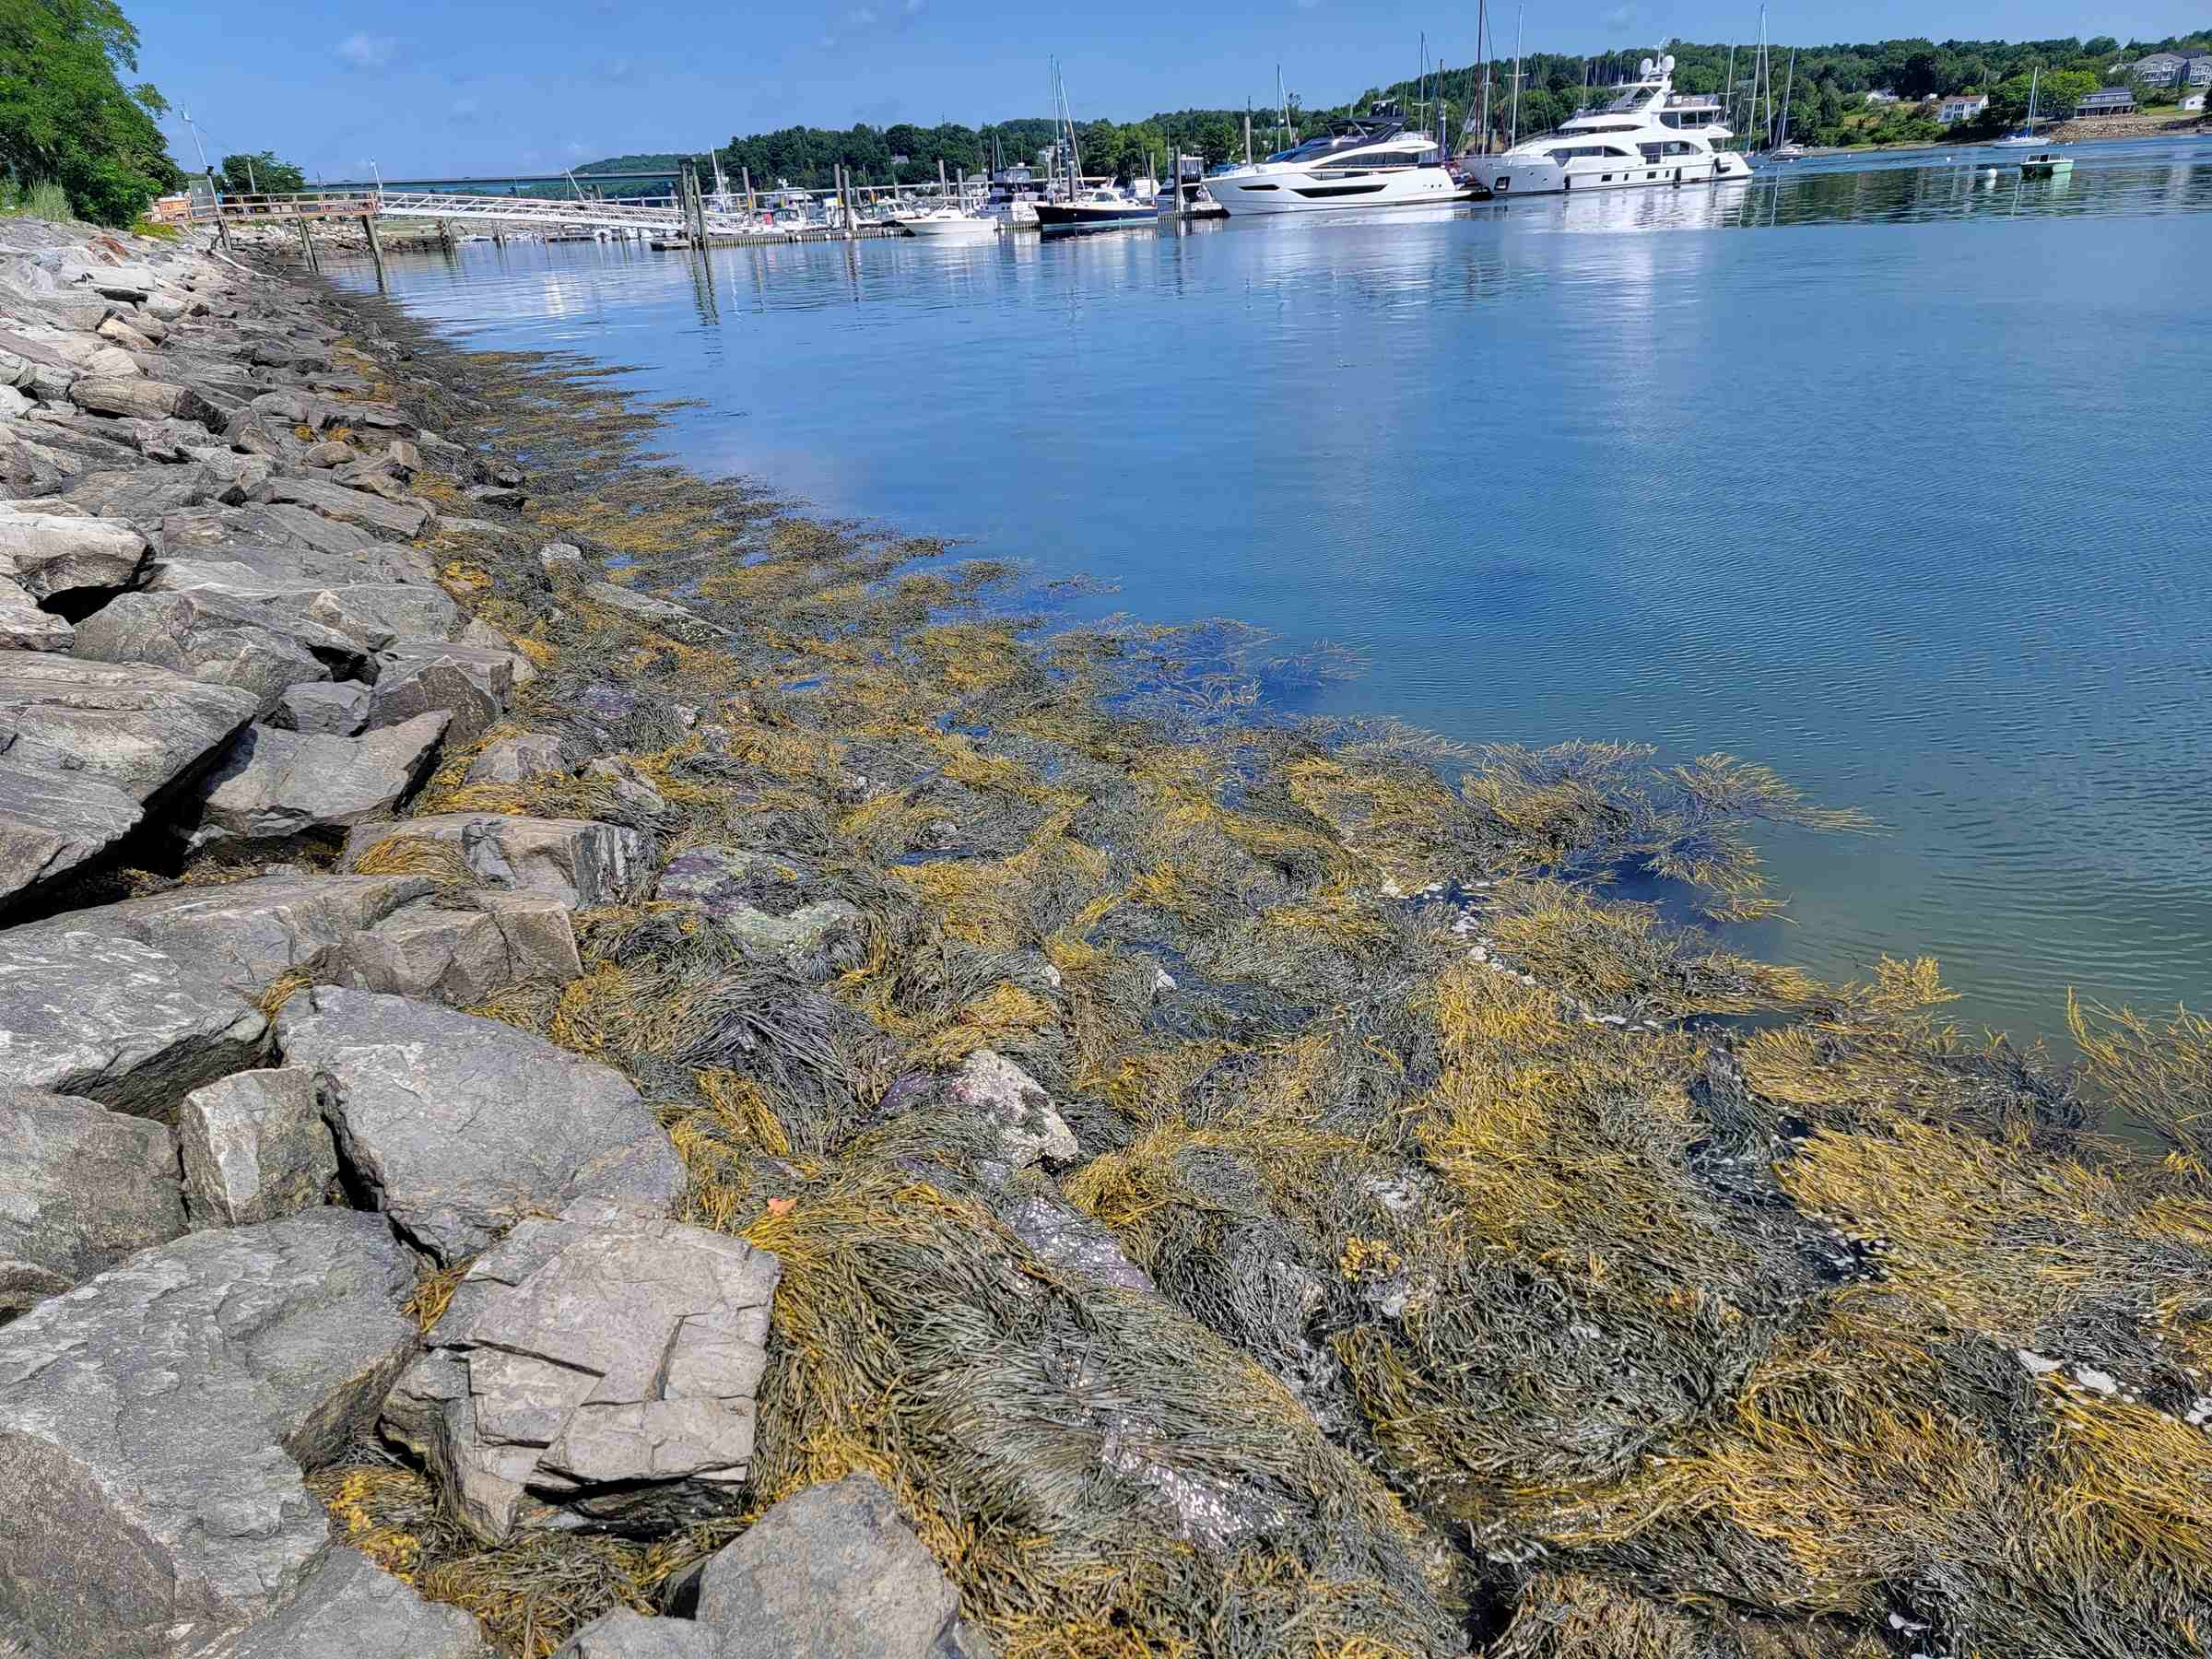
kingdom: Chromista
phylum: Ochrophyta
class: Phaeophyceae
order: Fucales
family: Fucaceae
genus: Ascophyllum
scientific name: Ascophyllum nodosum
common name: Rockweed
